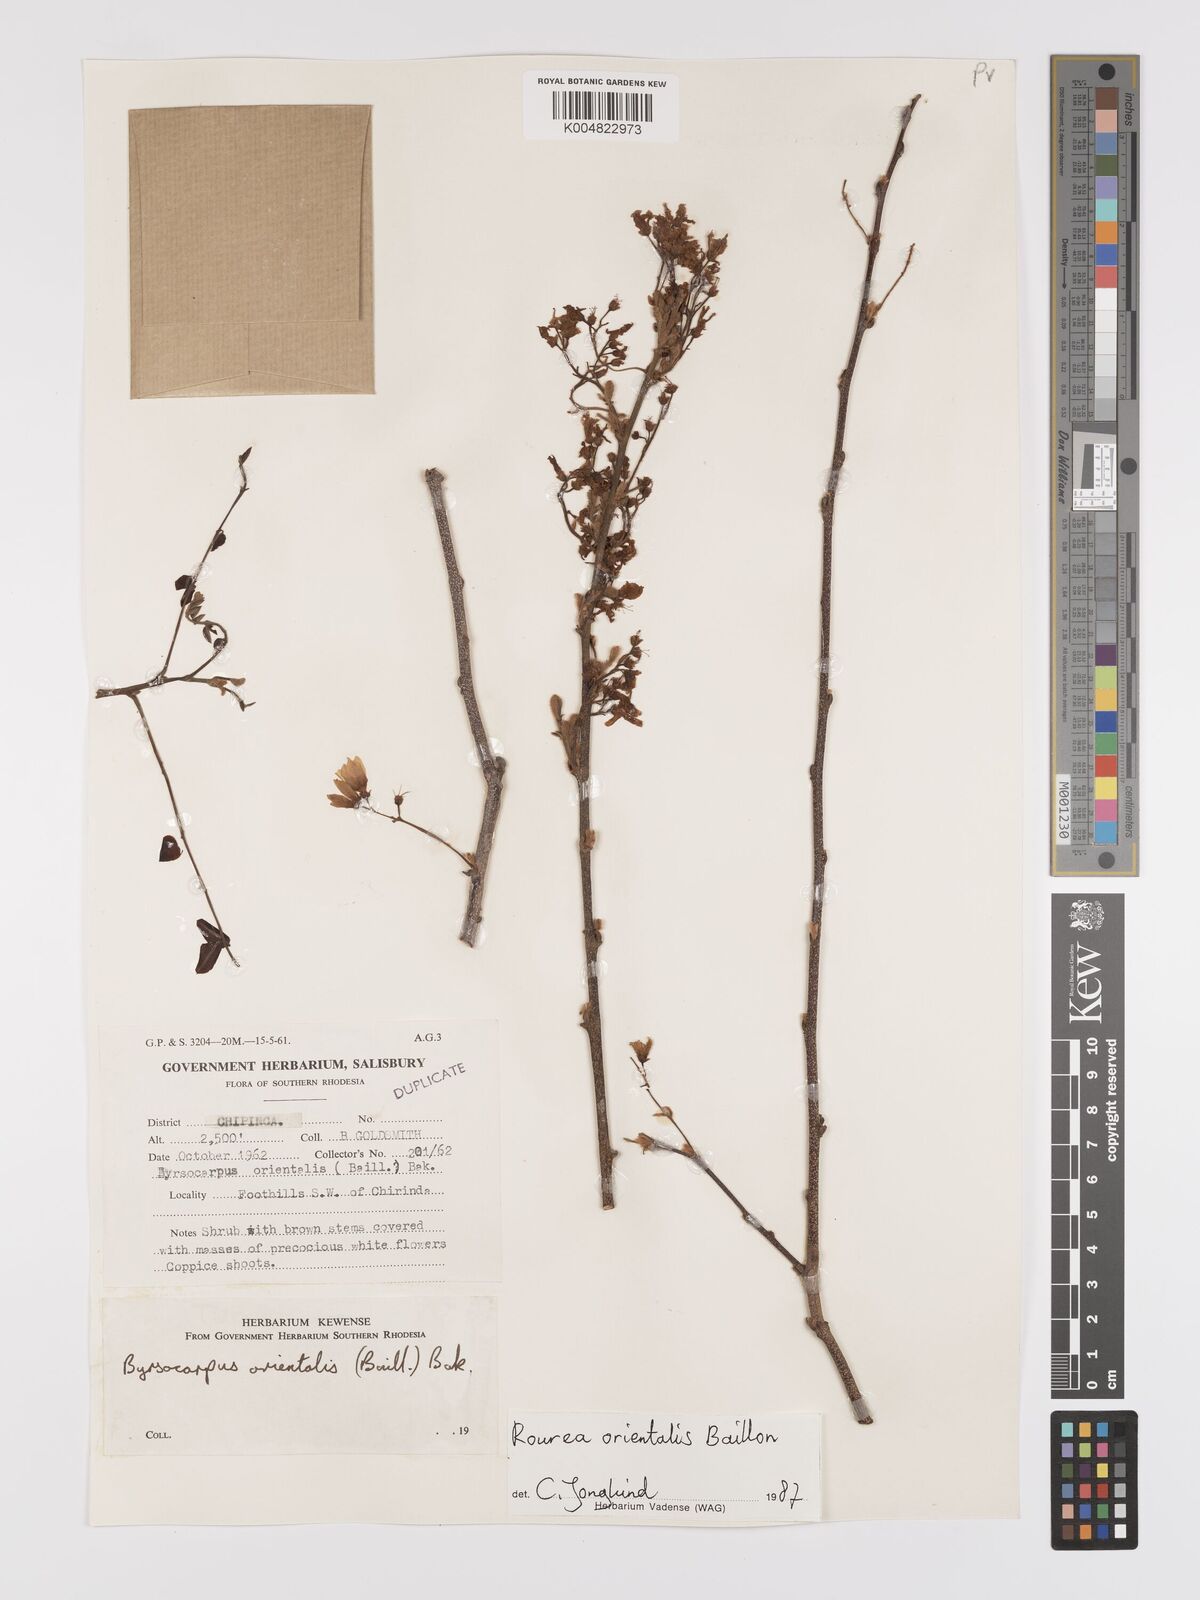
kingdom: Plantae
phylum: Tracheophyta
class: Magnoliopsida
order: Oxalidales
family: Connaraceae
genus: Rourea
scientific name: Rourea orientalis
